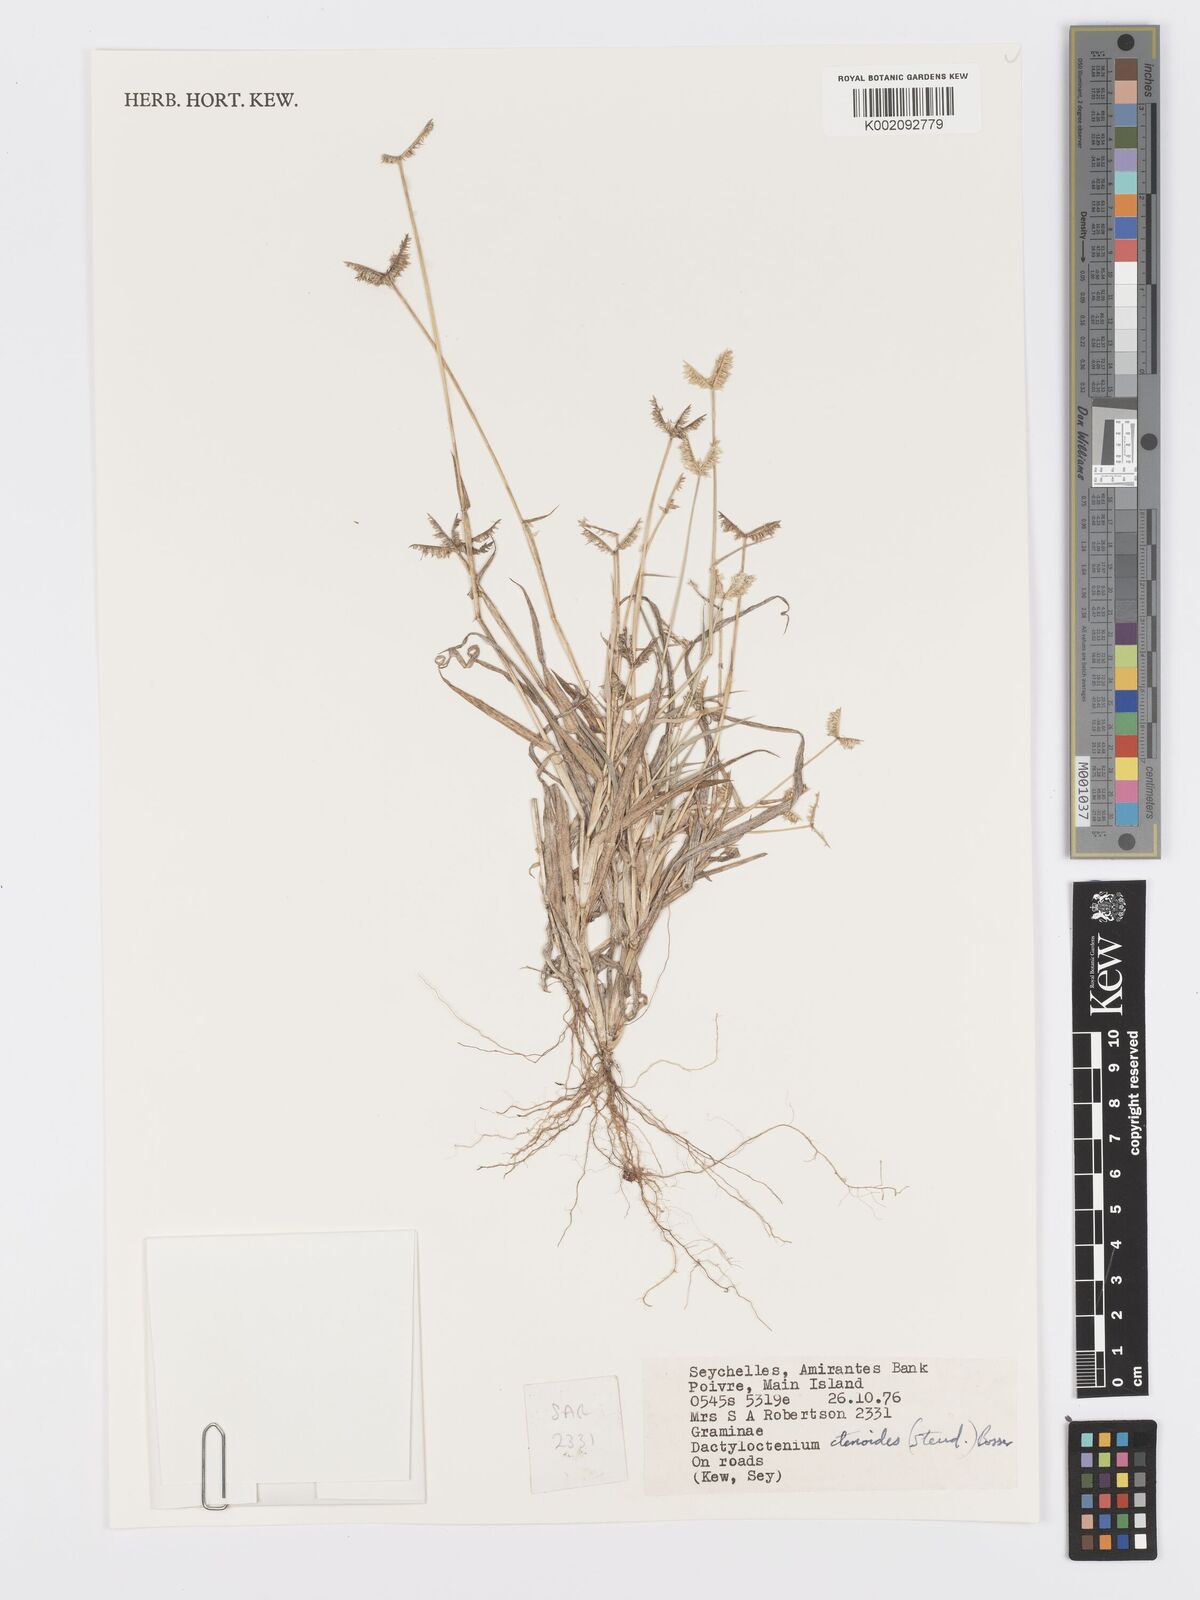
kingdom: Plantae
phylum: Tracheophyta
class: Liliopsida
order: Poales
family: Poaceae
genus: Dactyloctenium
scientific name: Dactyloctenium ctenoides
